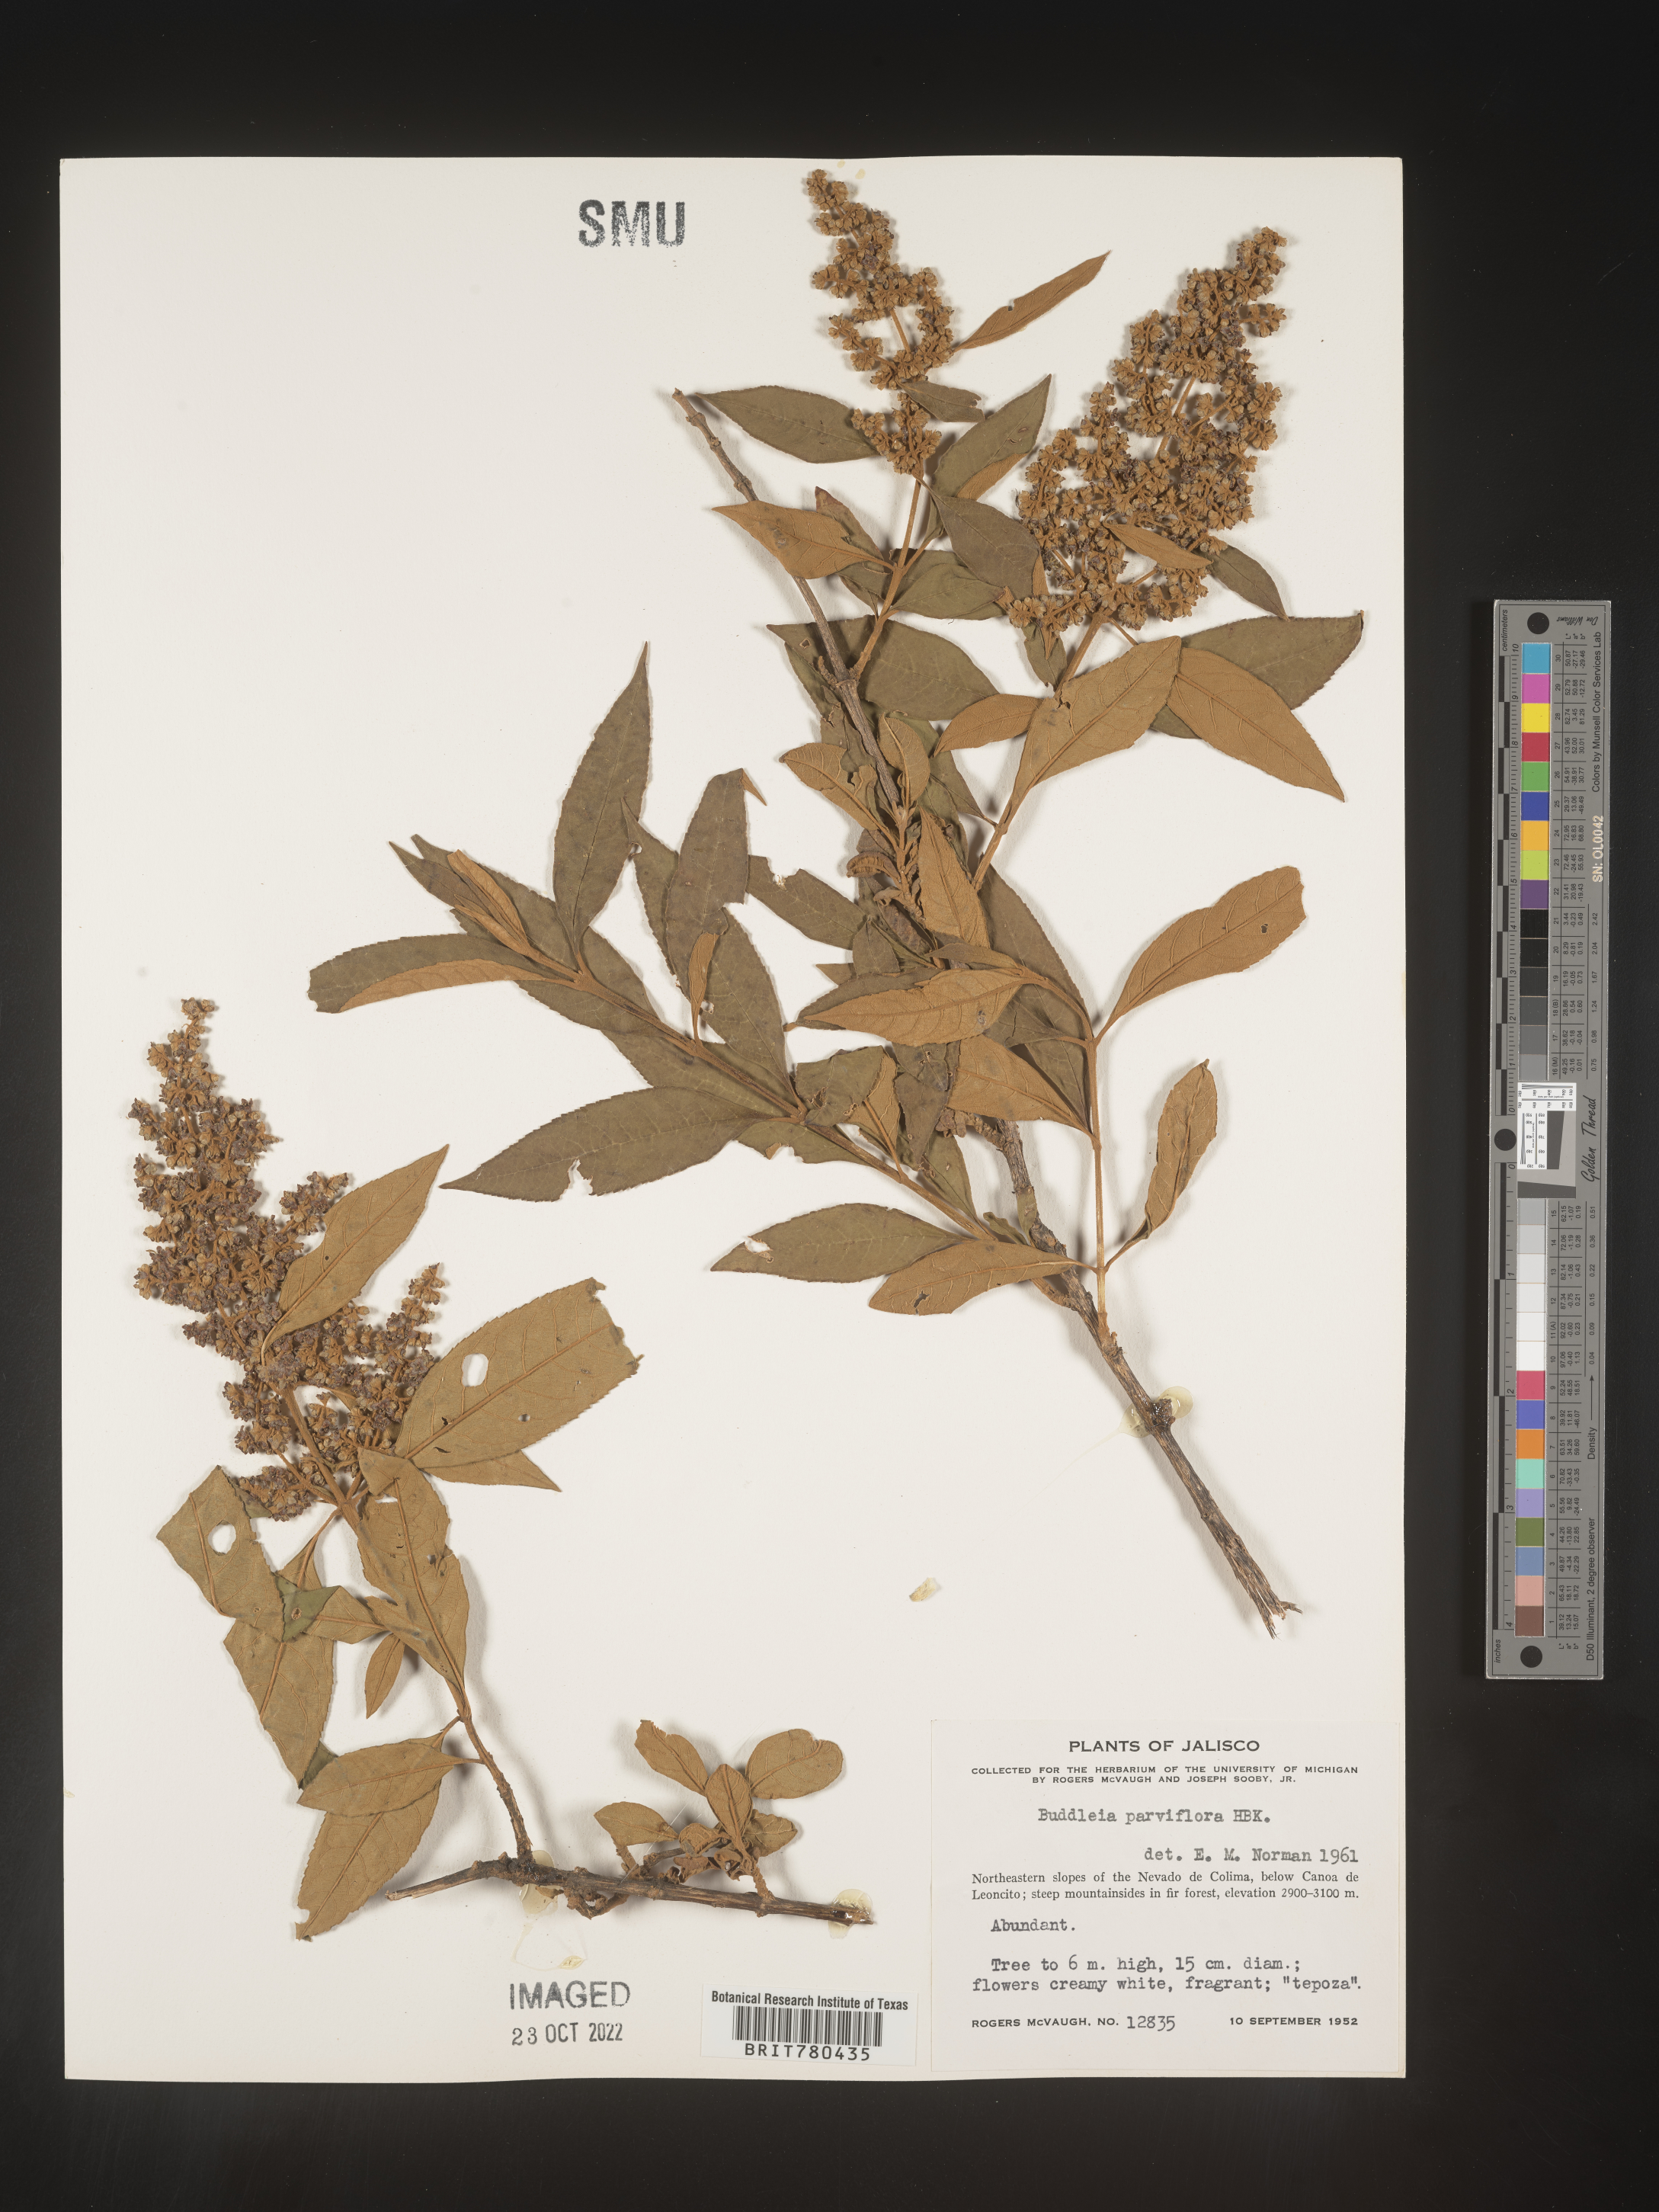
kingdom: Plantae
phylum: Tracheophyta
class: Magnoliopsida
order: Lamiales
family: Scrophulariaceae
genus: Buddleja
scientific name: Buddleja parviflora
